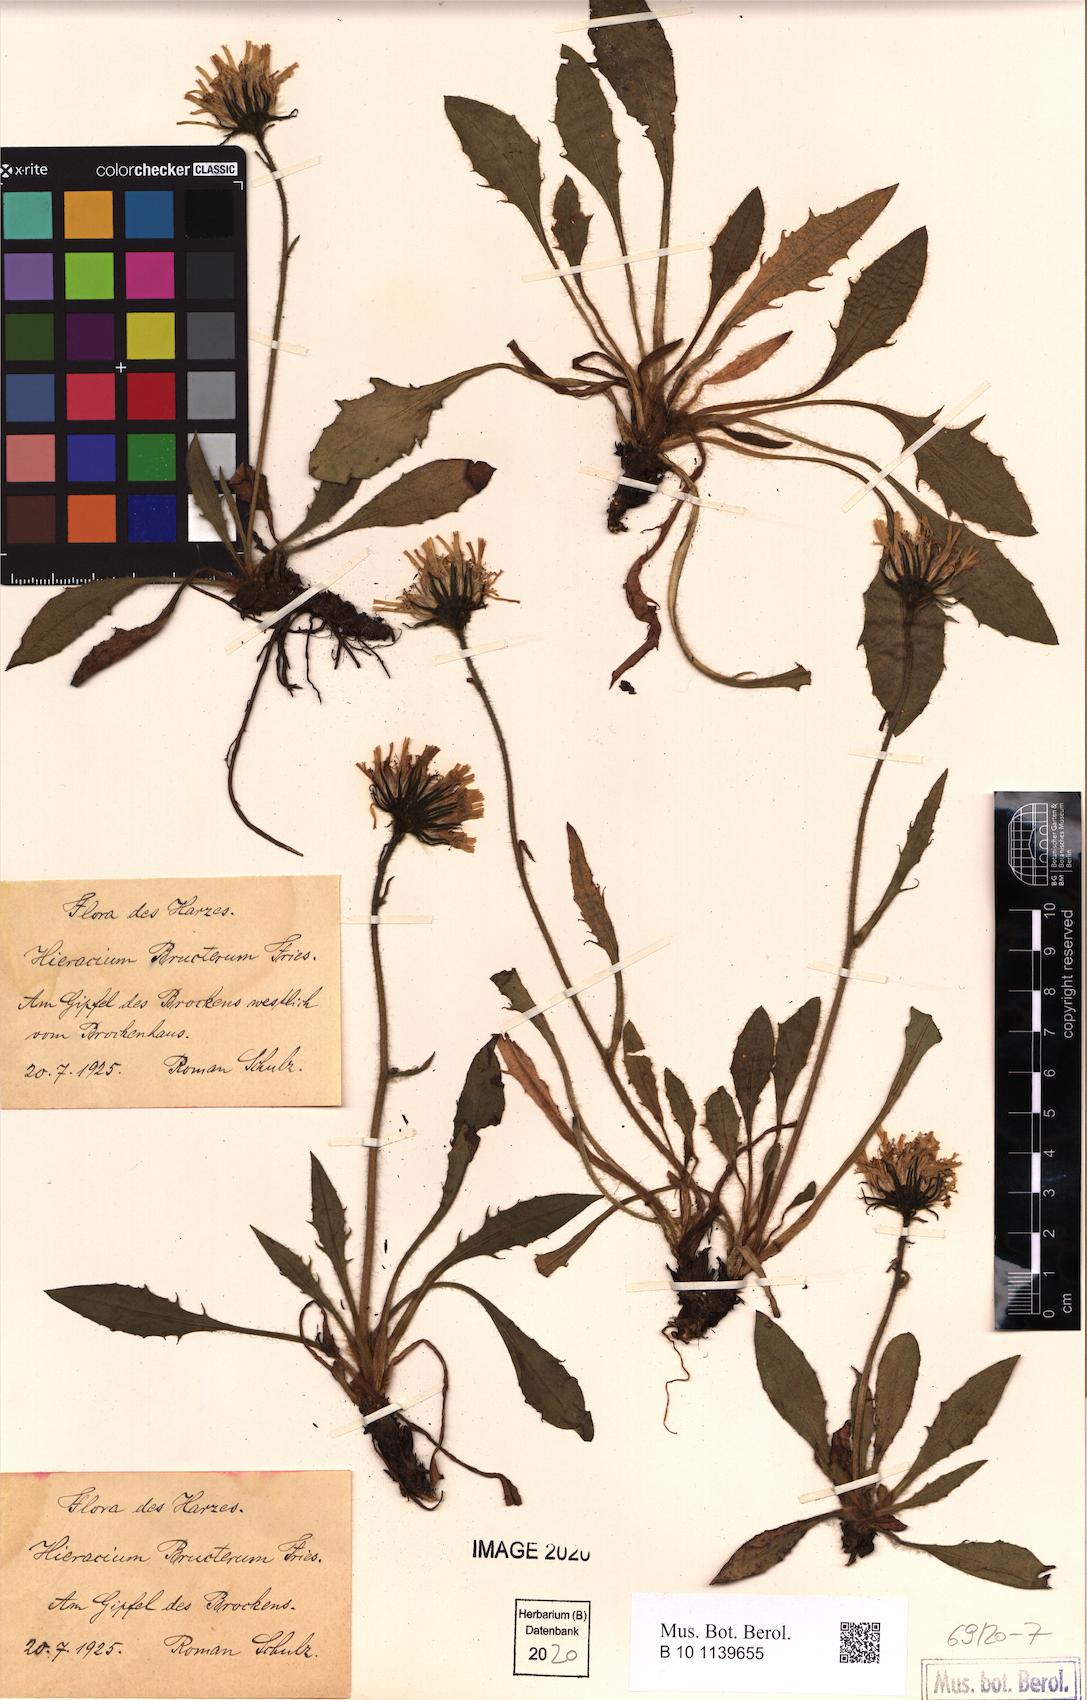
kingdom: Plantae
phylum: Tracheophyta
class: Magnoliopsida
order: Asterales
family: Asteraceae
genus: Hieracium
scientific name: Hieracium nigrescens
